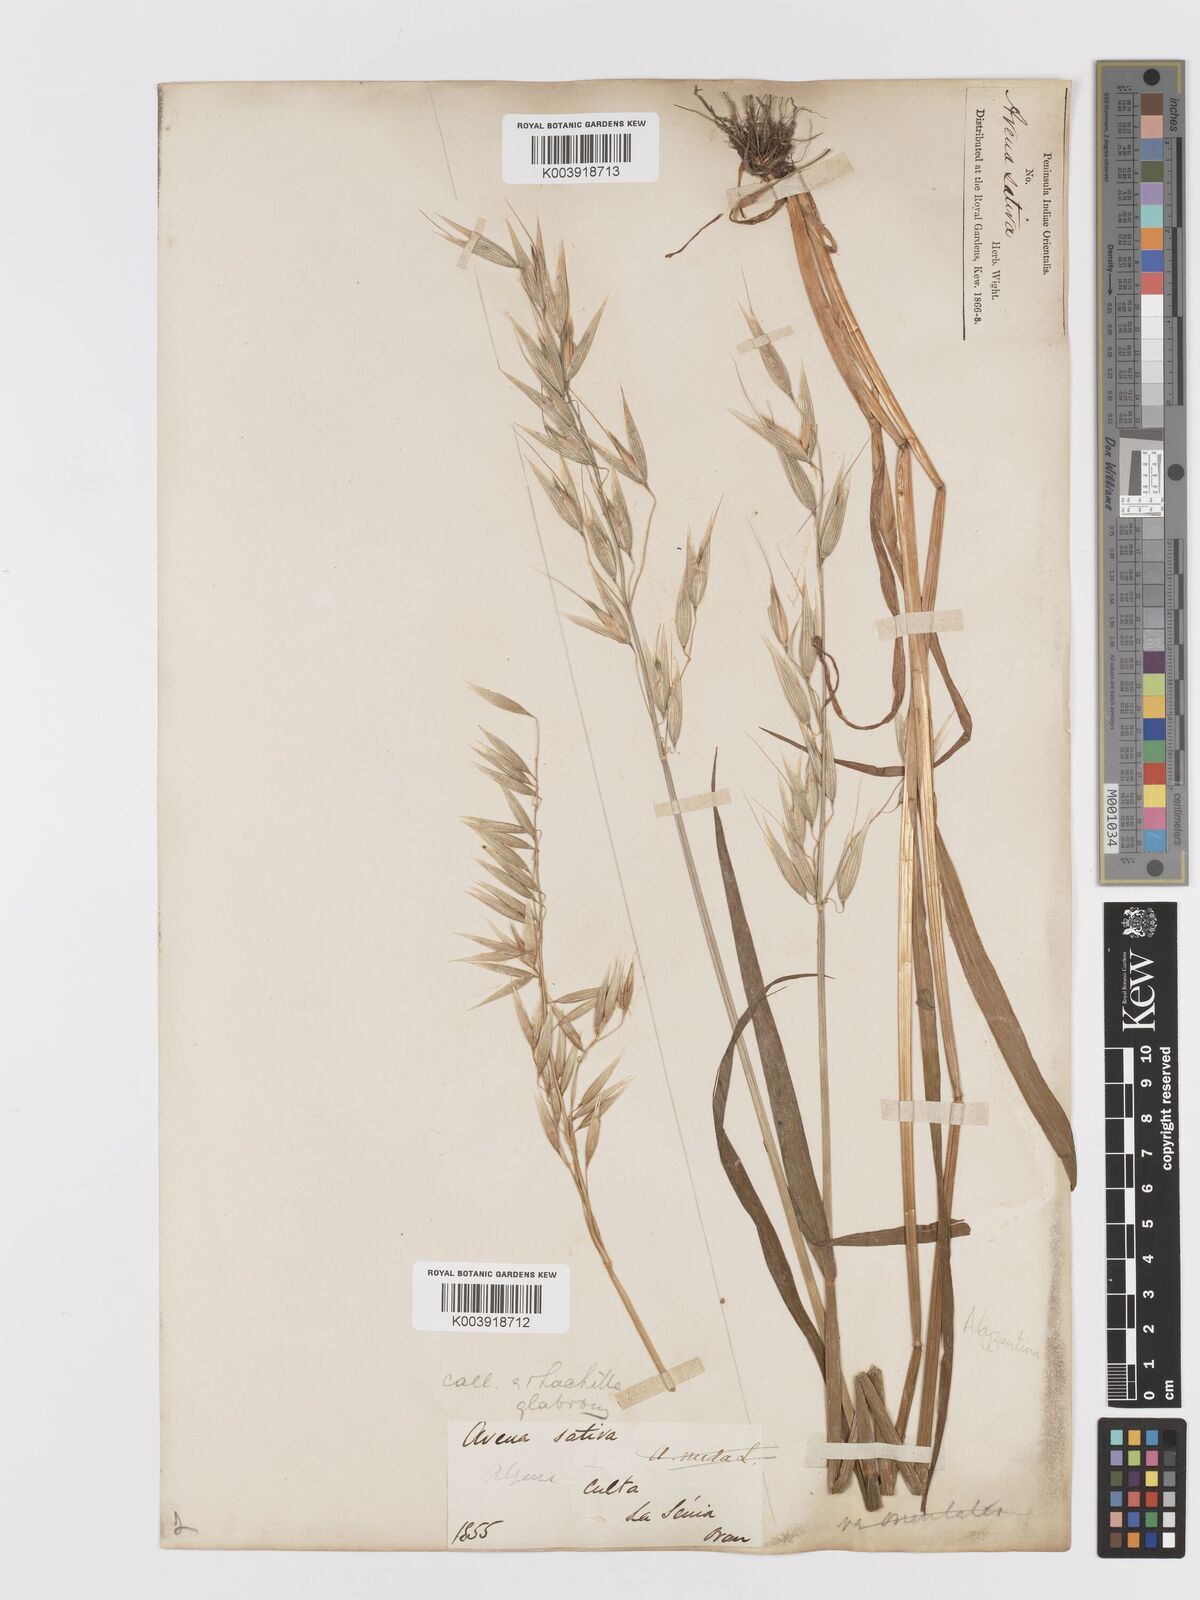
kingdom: Plantae
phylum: Tracheophyta
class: Liliopsida
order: Poales
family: Poaceae
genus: Avena
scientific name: Avena byzantina
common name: Algerian oat
